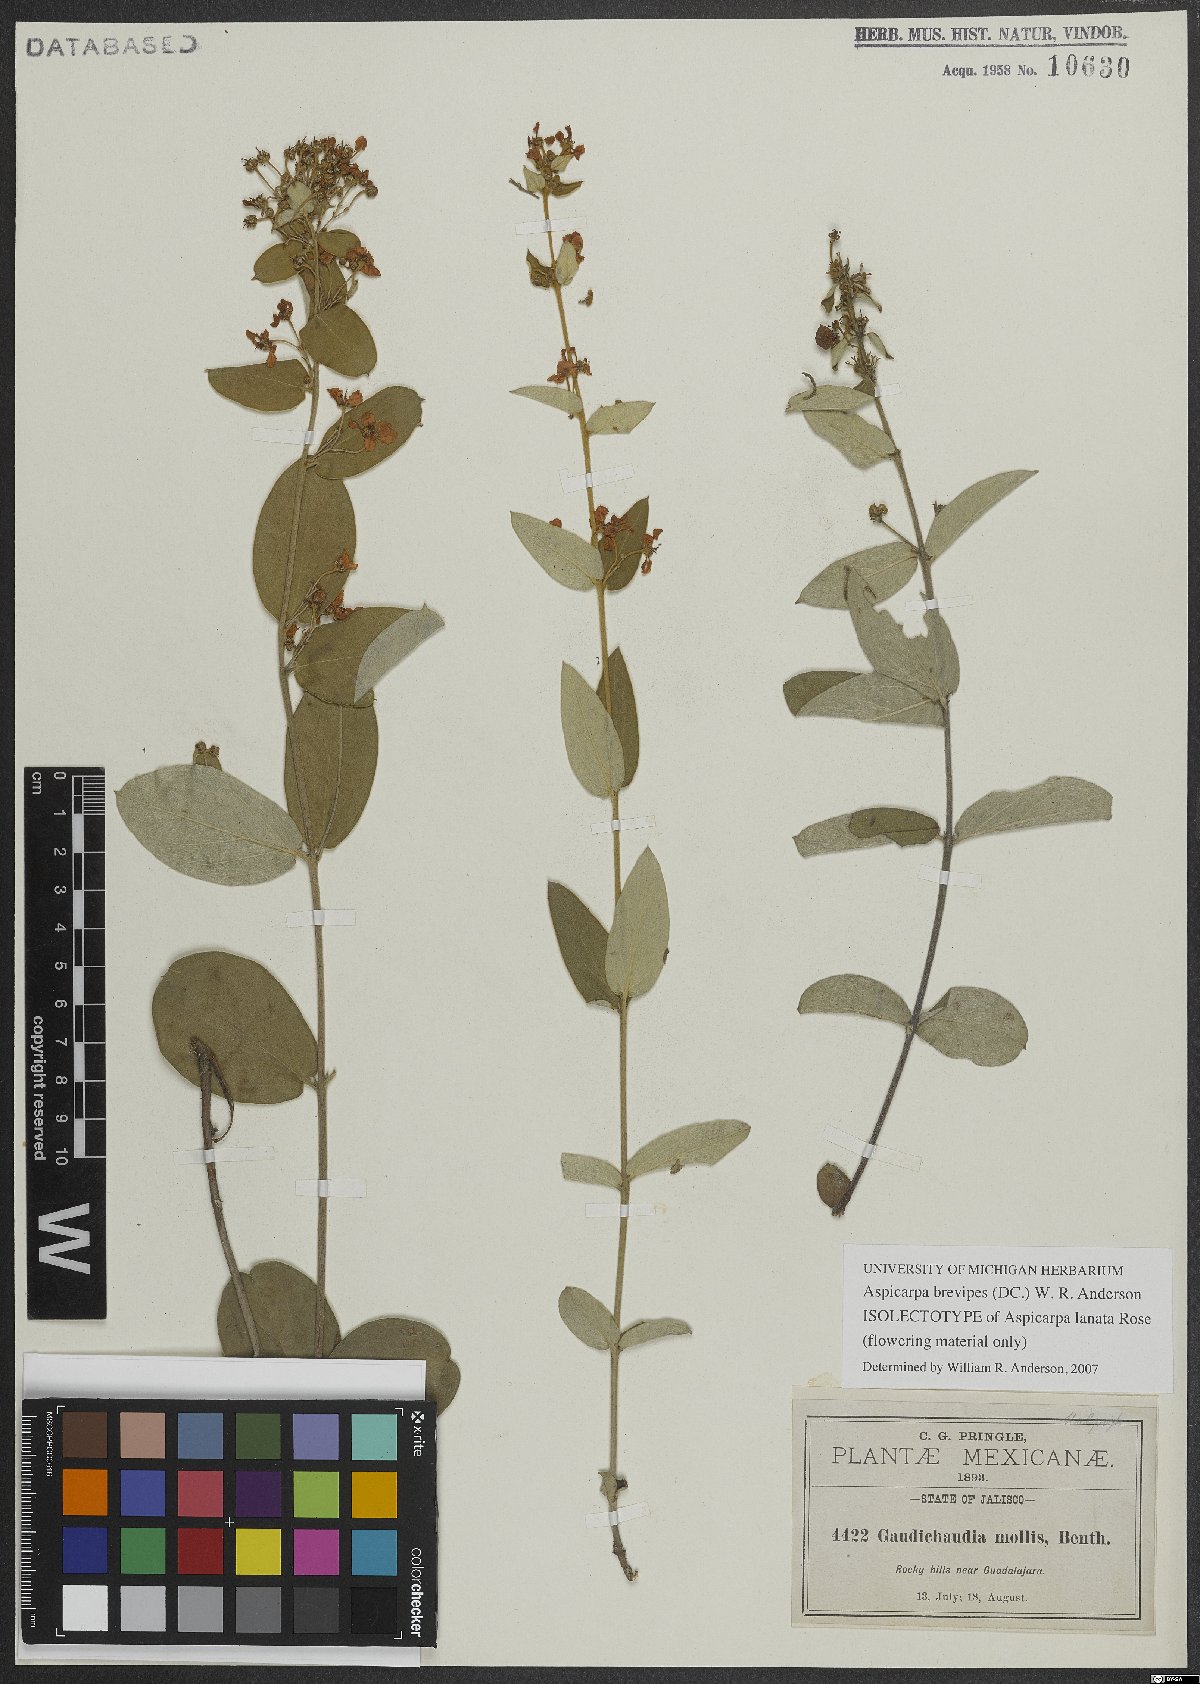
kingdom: Plantae
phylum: Tracheophyta
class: Magnoliopsida
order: Malpighiales
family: Malpighiaceae
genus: Aspicarpa
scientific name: Aspicarpa brevipes
